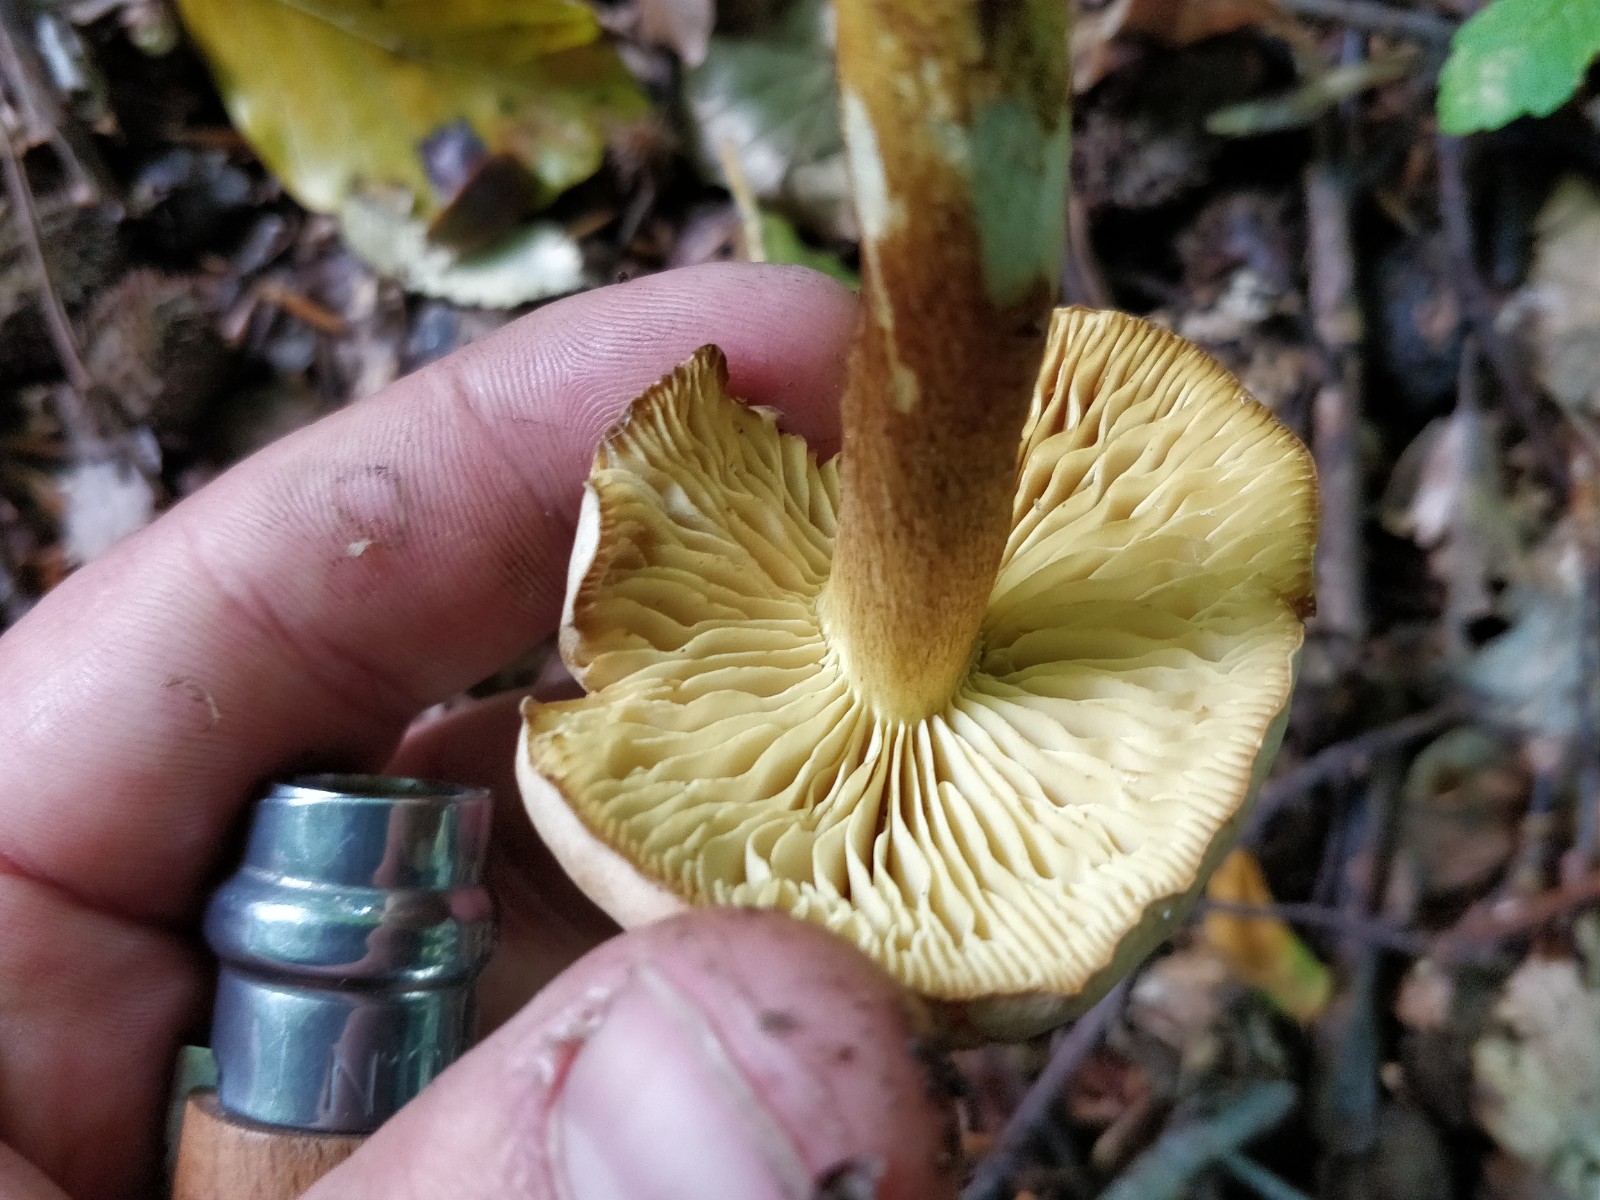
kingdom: Fungi
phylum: Basidiomycota
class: Agaricomycetes
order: Agaricales
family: Tricholomataceae
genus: Tricholoma
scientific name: Tricholoma sulphureum
